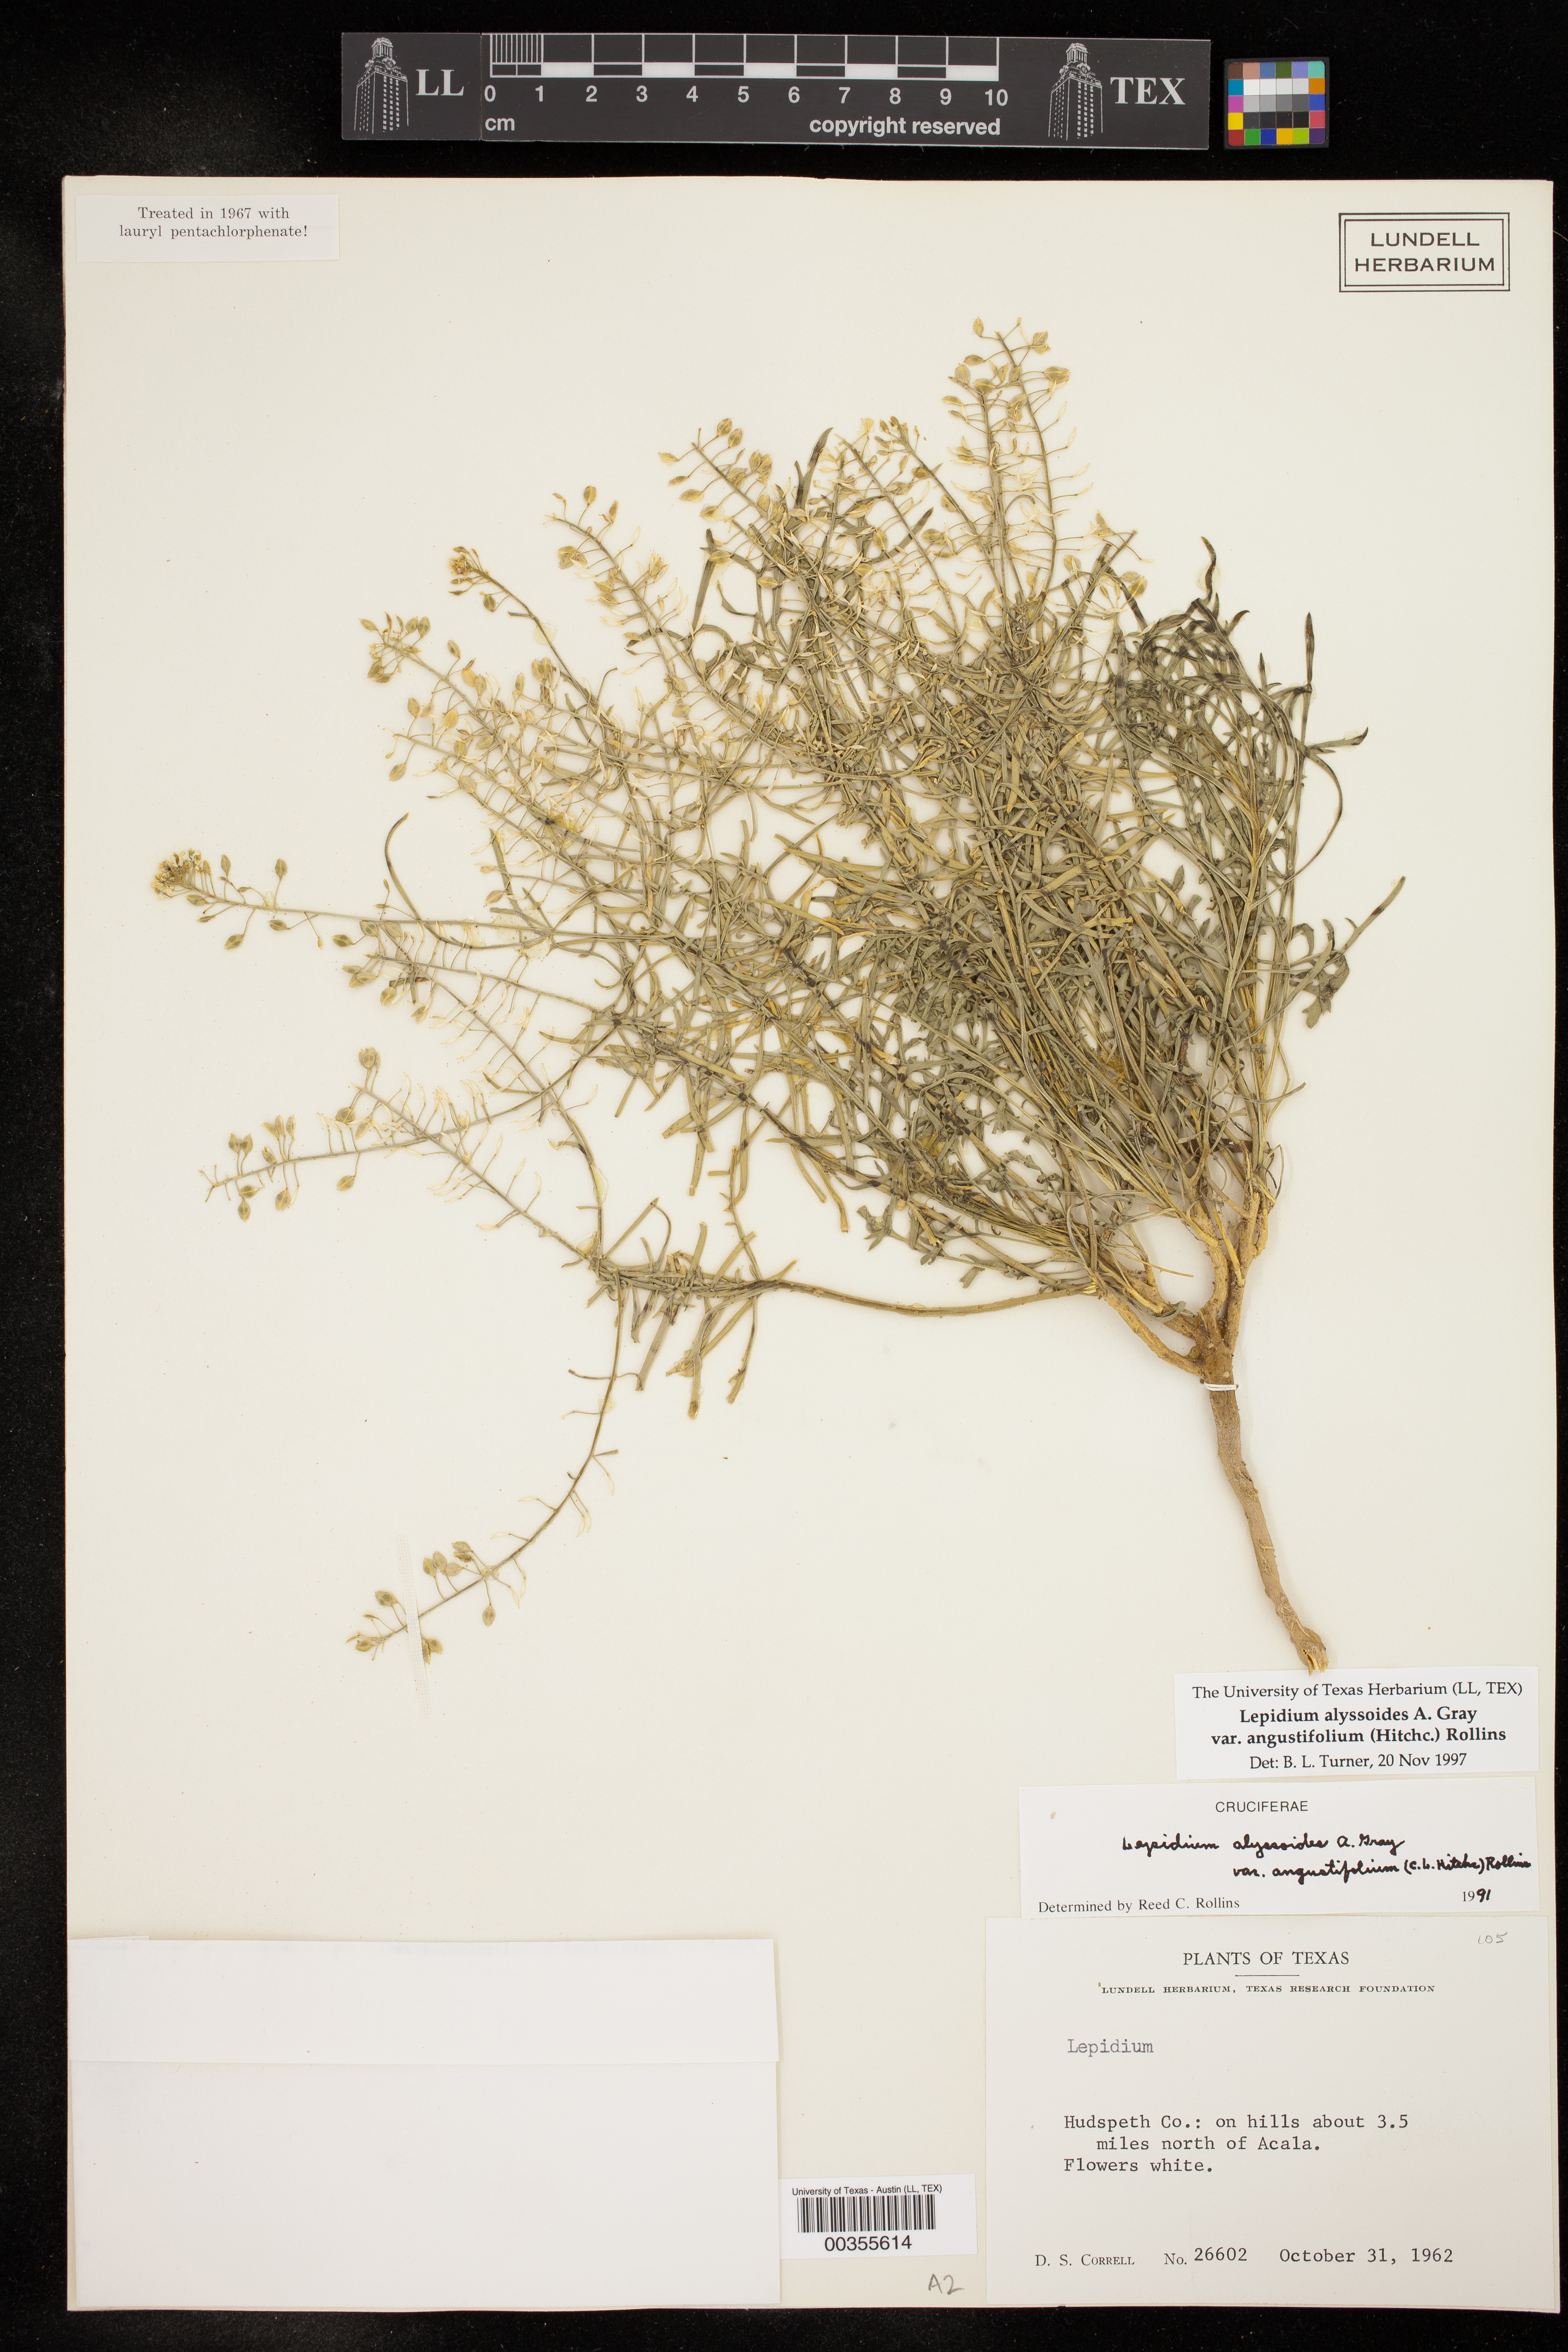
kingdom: Plantae
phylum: Tracheophyta
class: Magnoliopsida
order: Brassicales
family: Brassicaceae
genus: Lepidium
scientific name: Lepidium alyssoides
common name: Mesa pepperweed
